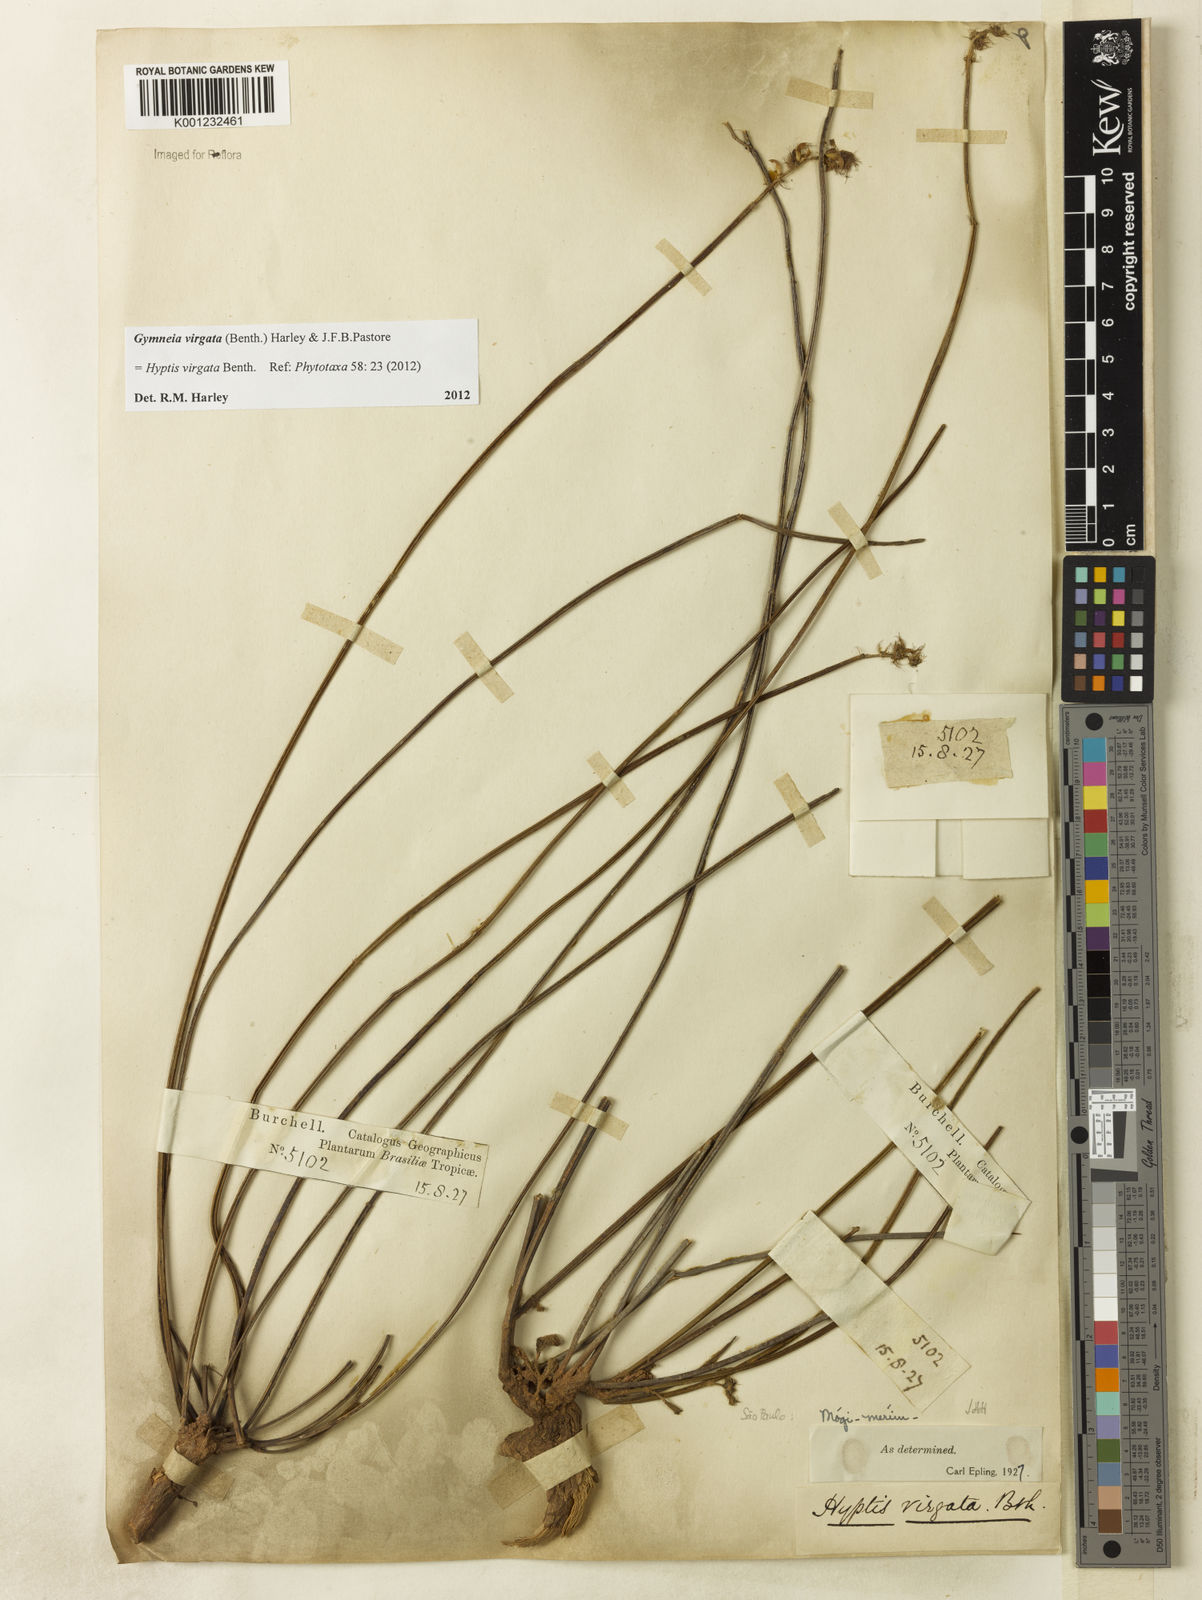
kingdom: Plantae
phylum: Tracheophyta
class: Magnoliopsida
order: Lamiales
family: Lamiaceae
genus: Gymneia
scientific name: Gymneia virgata
